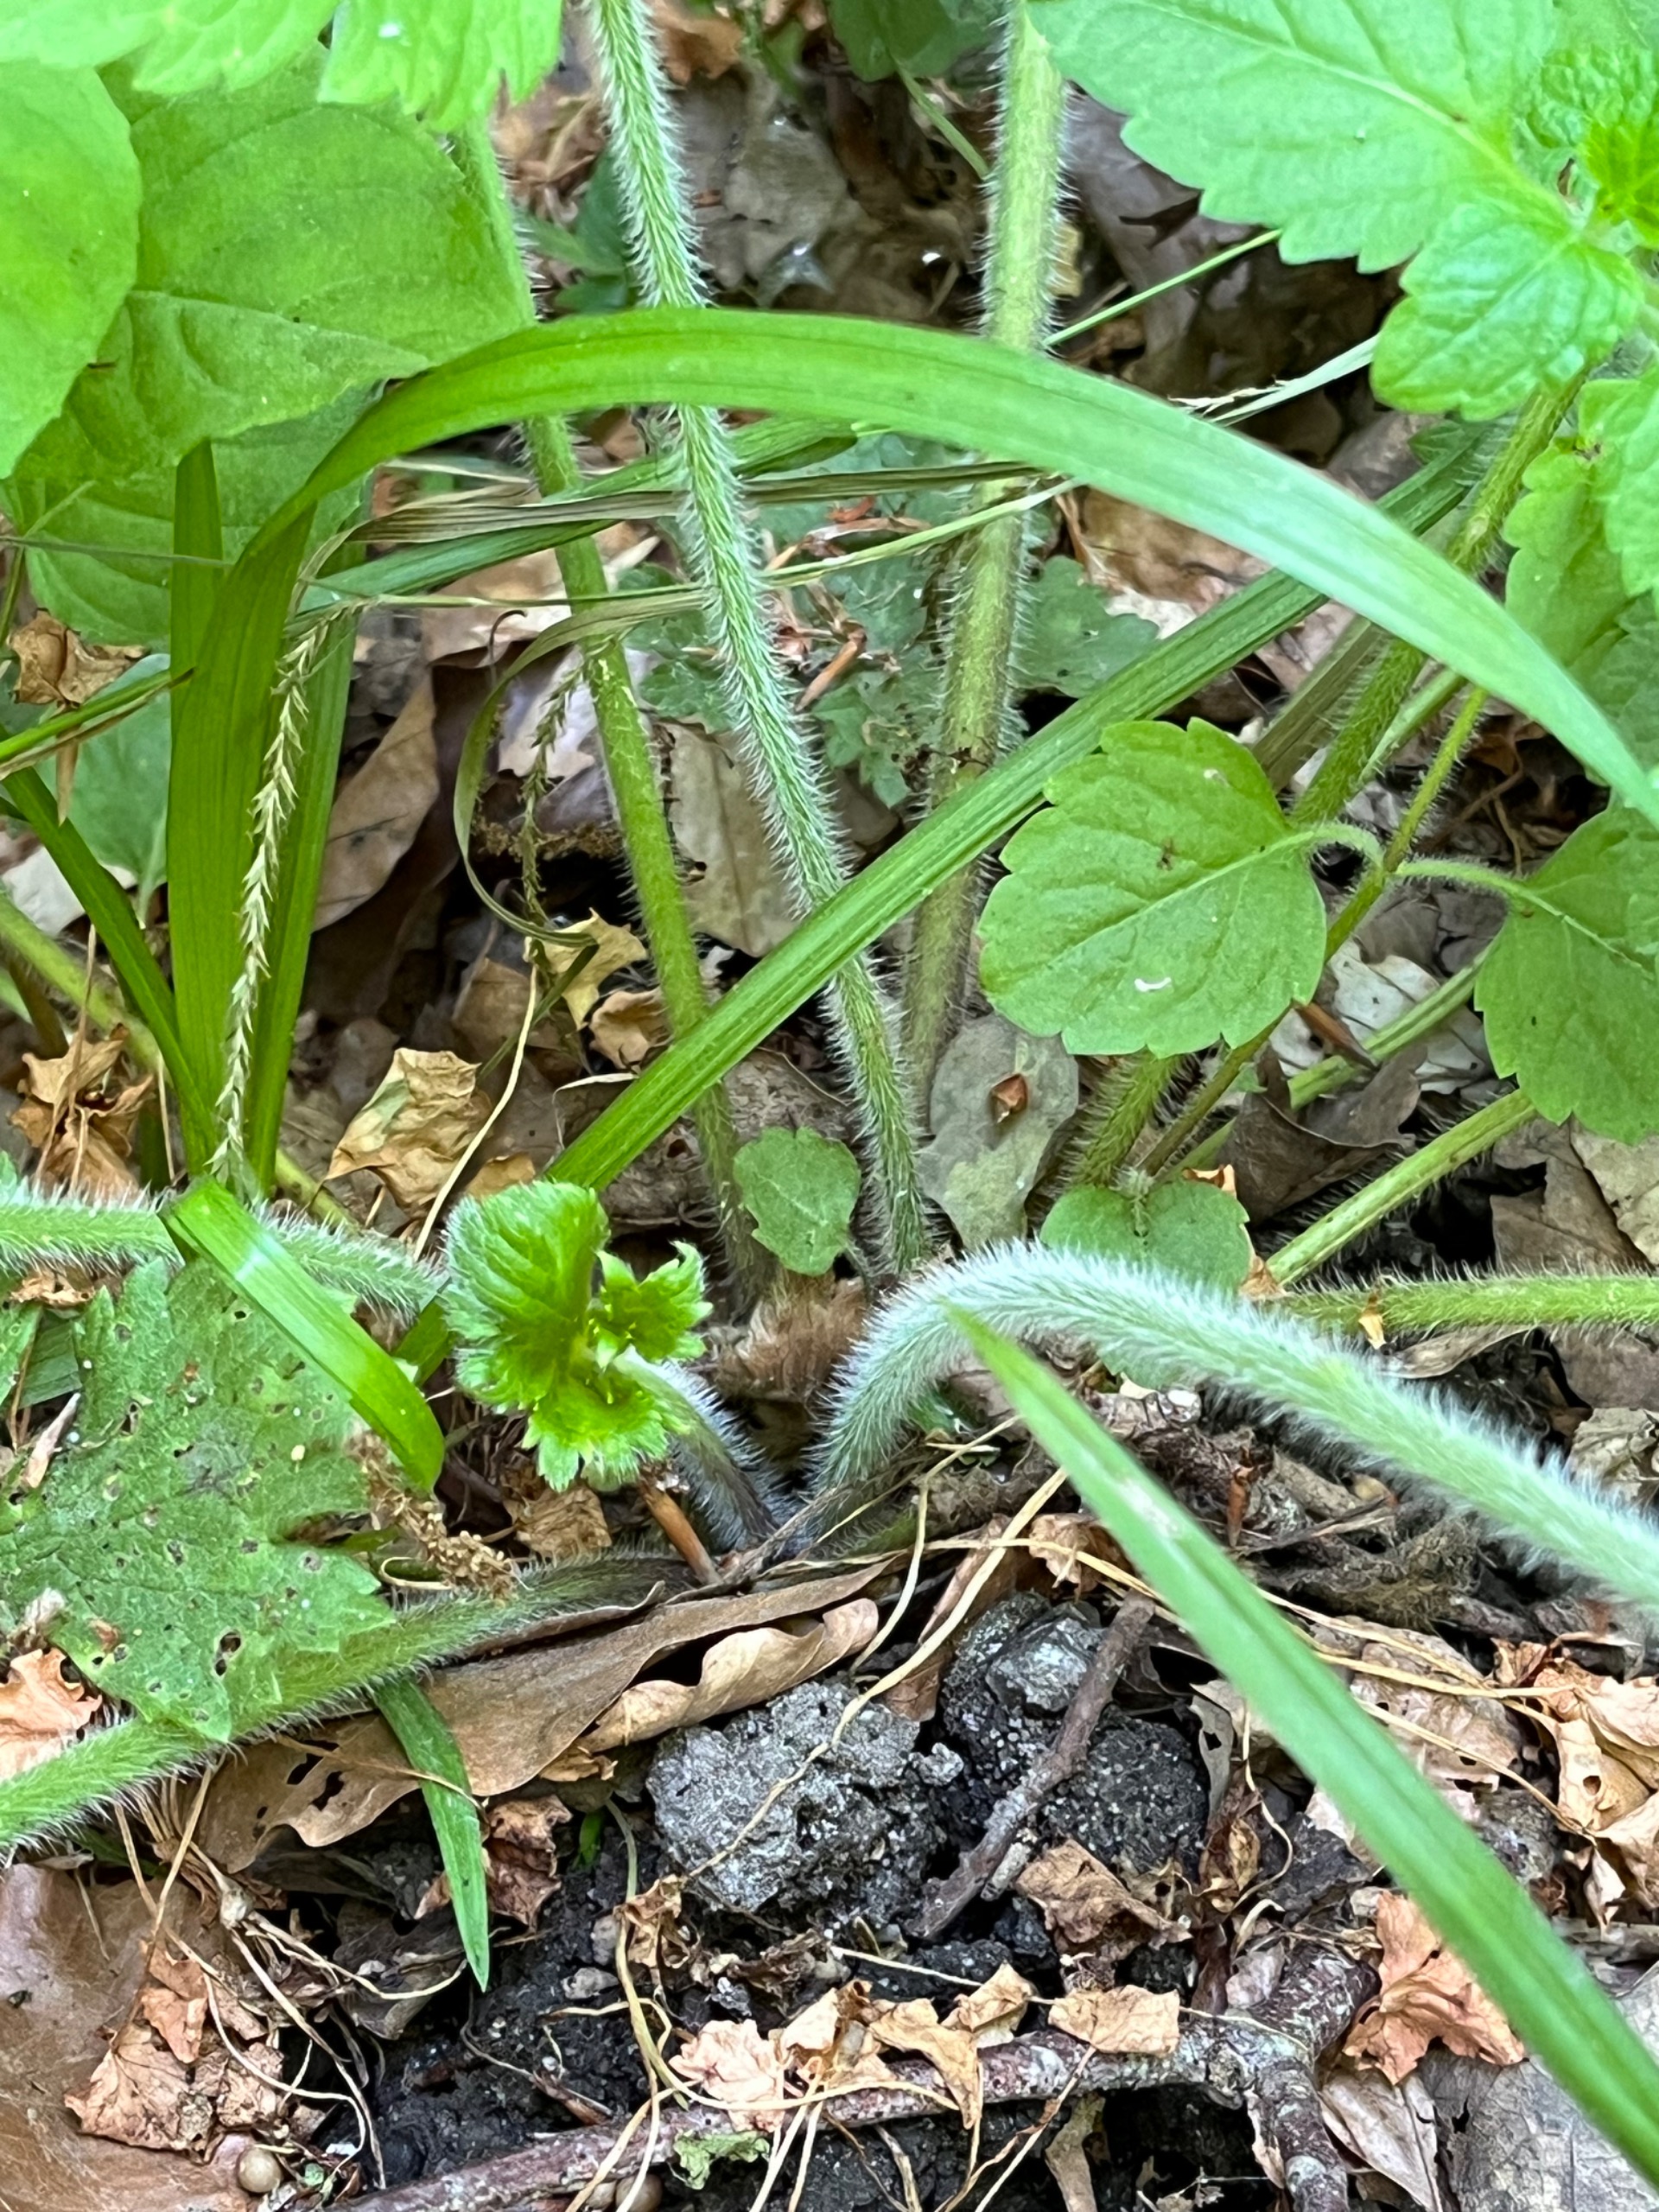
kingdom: Plantae
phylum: Tracheophyta
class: Magnoliopsida
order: Ranunculales
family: Ranunculaceae
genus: Ranunculus
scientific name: Ranunculus lanuginosus
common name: Uldhåret ranunkel
